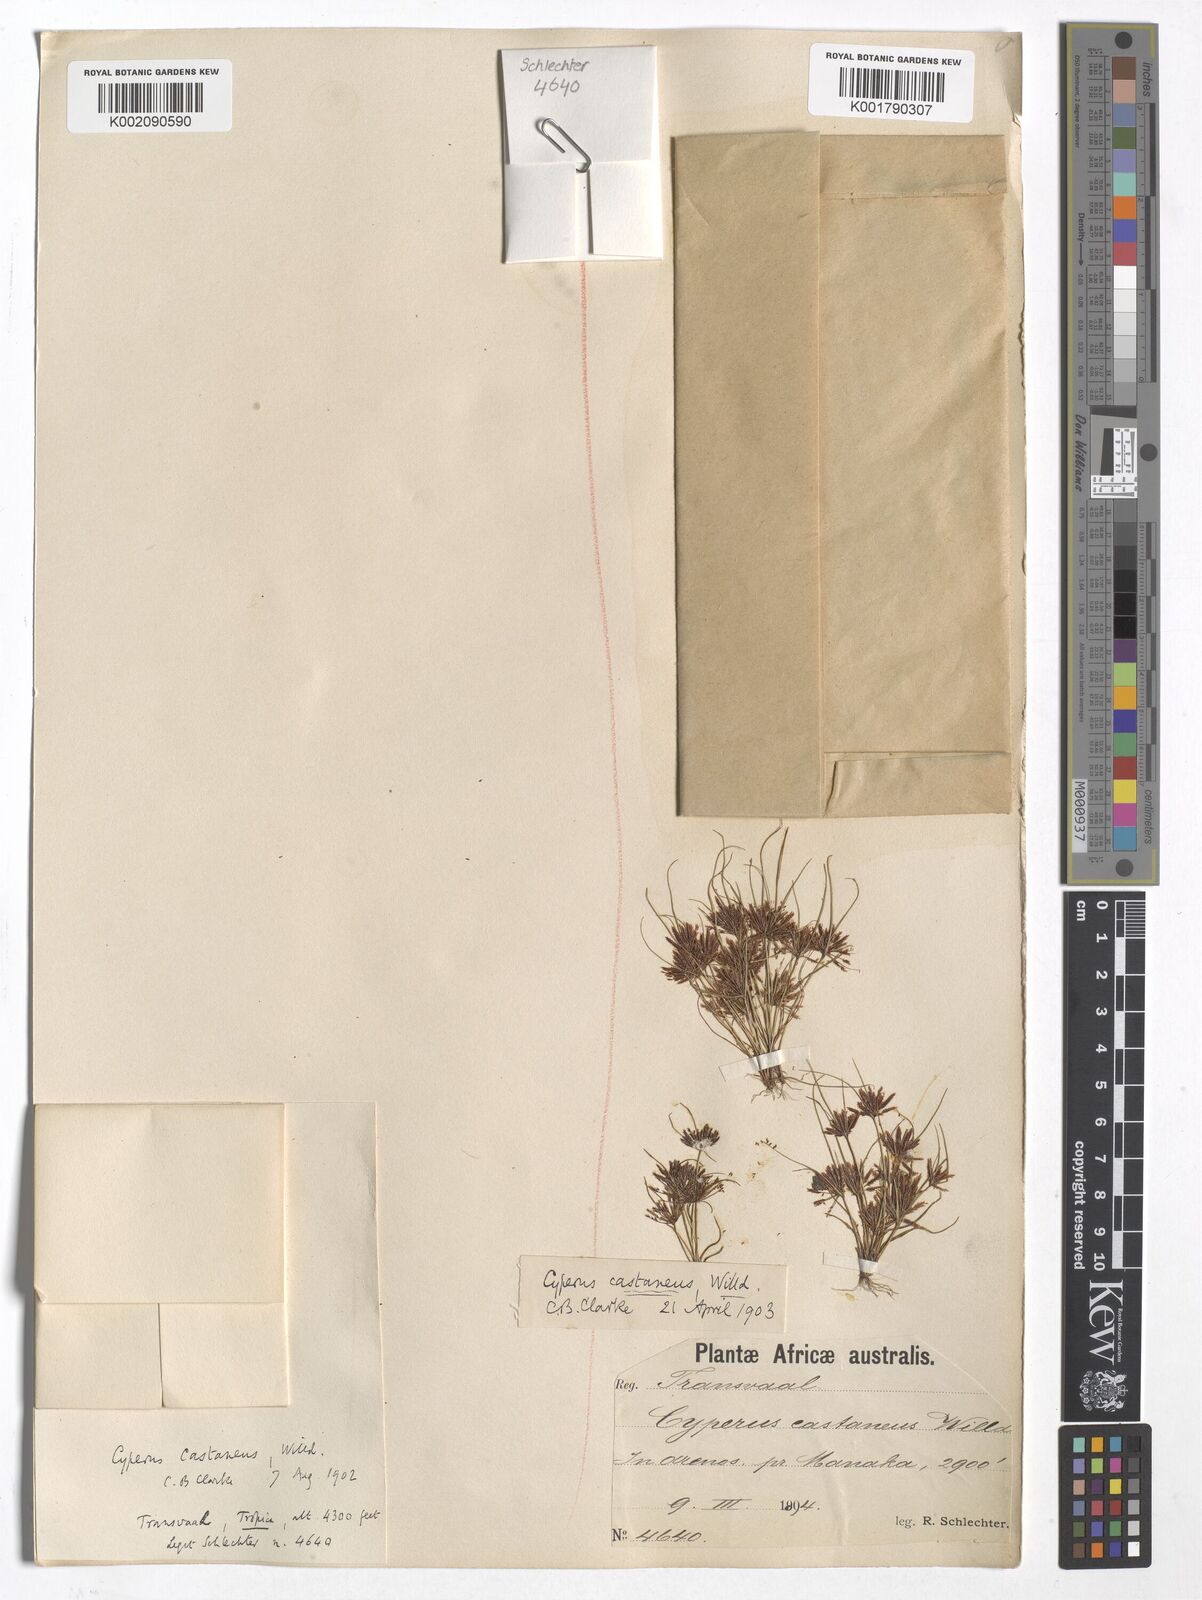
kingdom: Plantae
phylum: Tracheophyta
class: Liliopsida
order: Poales
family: Cyperaceae
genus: Cyperus
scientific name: Cyperus castaneus
